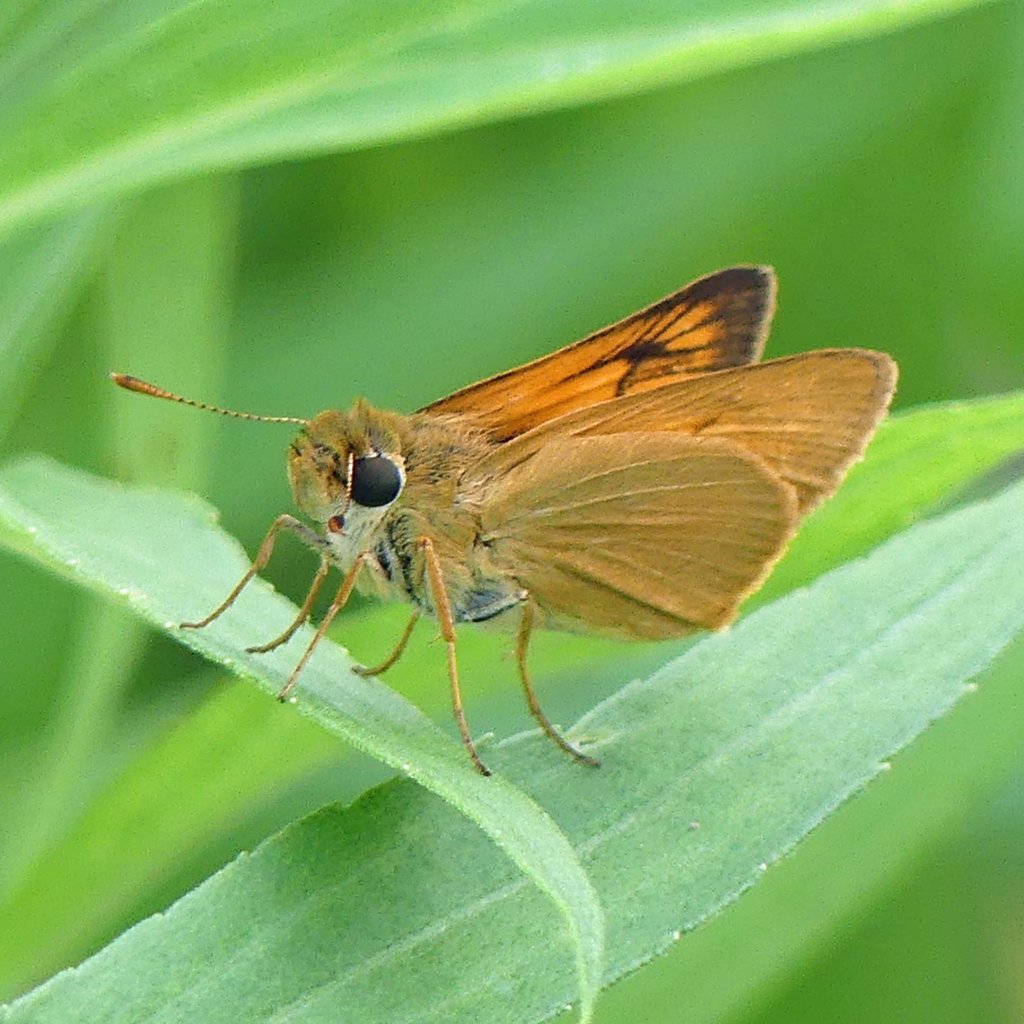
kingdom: Animalia
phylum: Arthropoda
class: Insecta
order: Lepidoptera
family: Hesperiidae
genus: Atrytone
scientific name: Atrytone delaware
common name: Delaware Skipper
